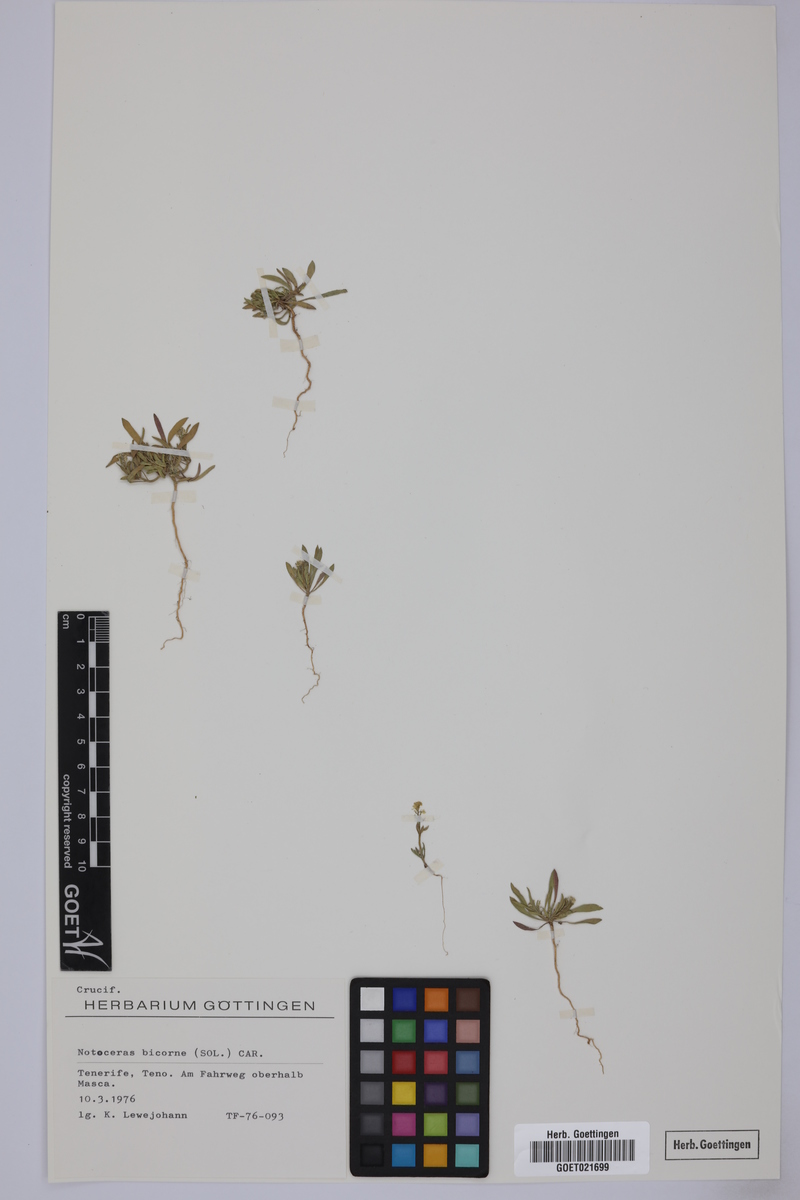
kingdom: Plantae
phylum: Tracheophyta
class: Magnoliopsida
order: Brassicales
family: Brassicaceae
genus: Notoceras
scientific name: Notoceras bicorne
